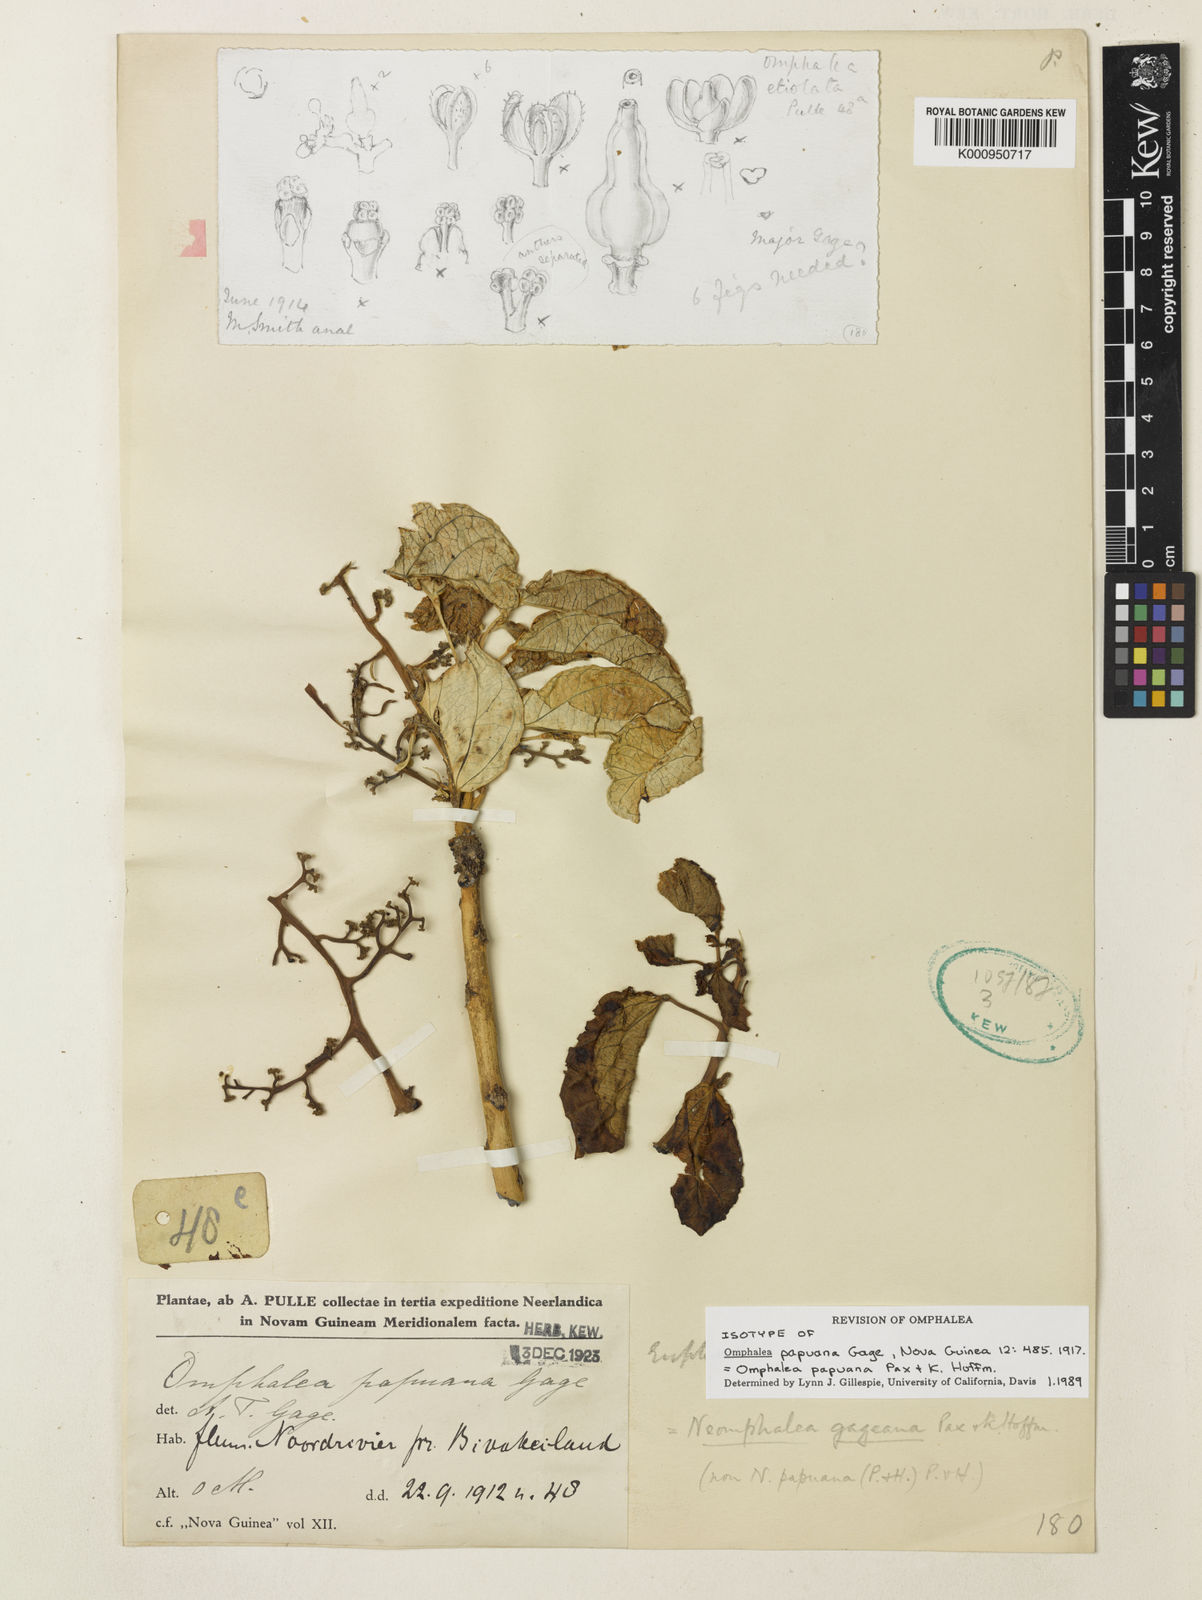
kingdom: Plantae
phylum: Tracheophyta
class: Magnoliopsida
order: Malpighiales
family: Euphorbiaceae
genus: Omphalea
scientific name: Omphalea papuana
